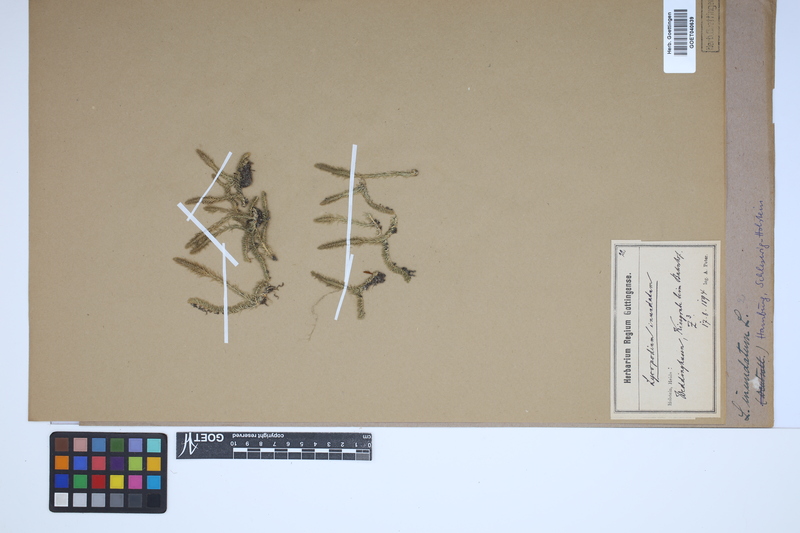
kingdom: Plantae
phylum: Tracheophyta
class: Lycopodiopsida
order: Lycopodiales
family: Lycopodiaceae
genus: Lycopodiella
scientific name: Lycopodiella inundata
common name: Marsh clubmoss
